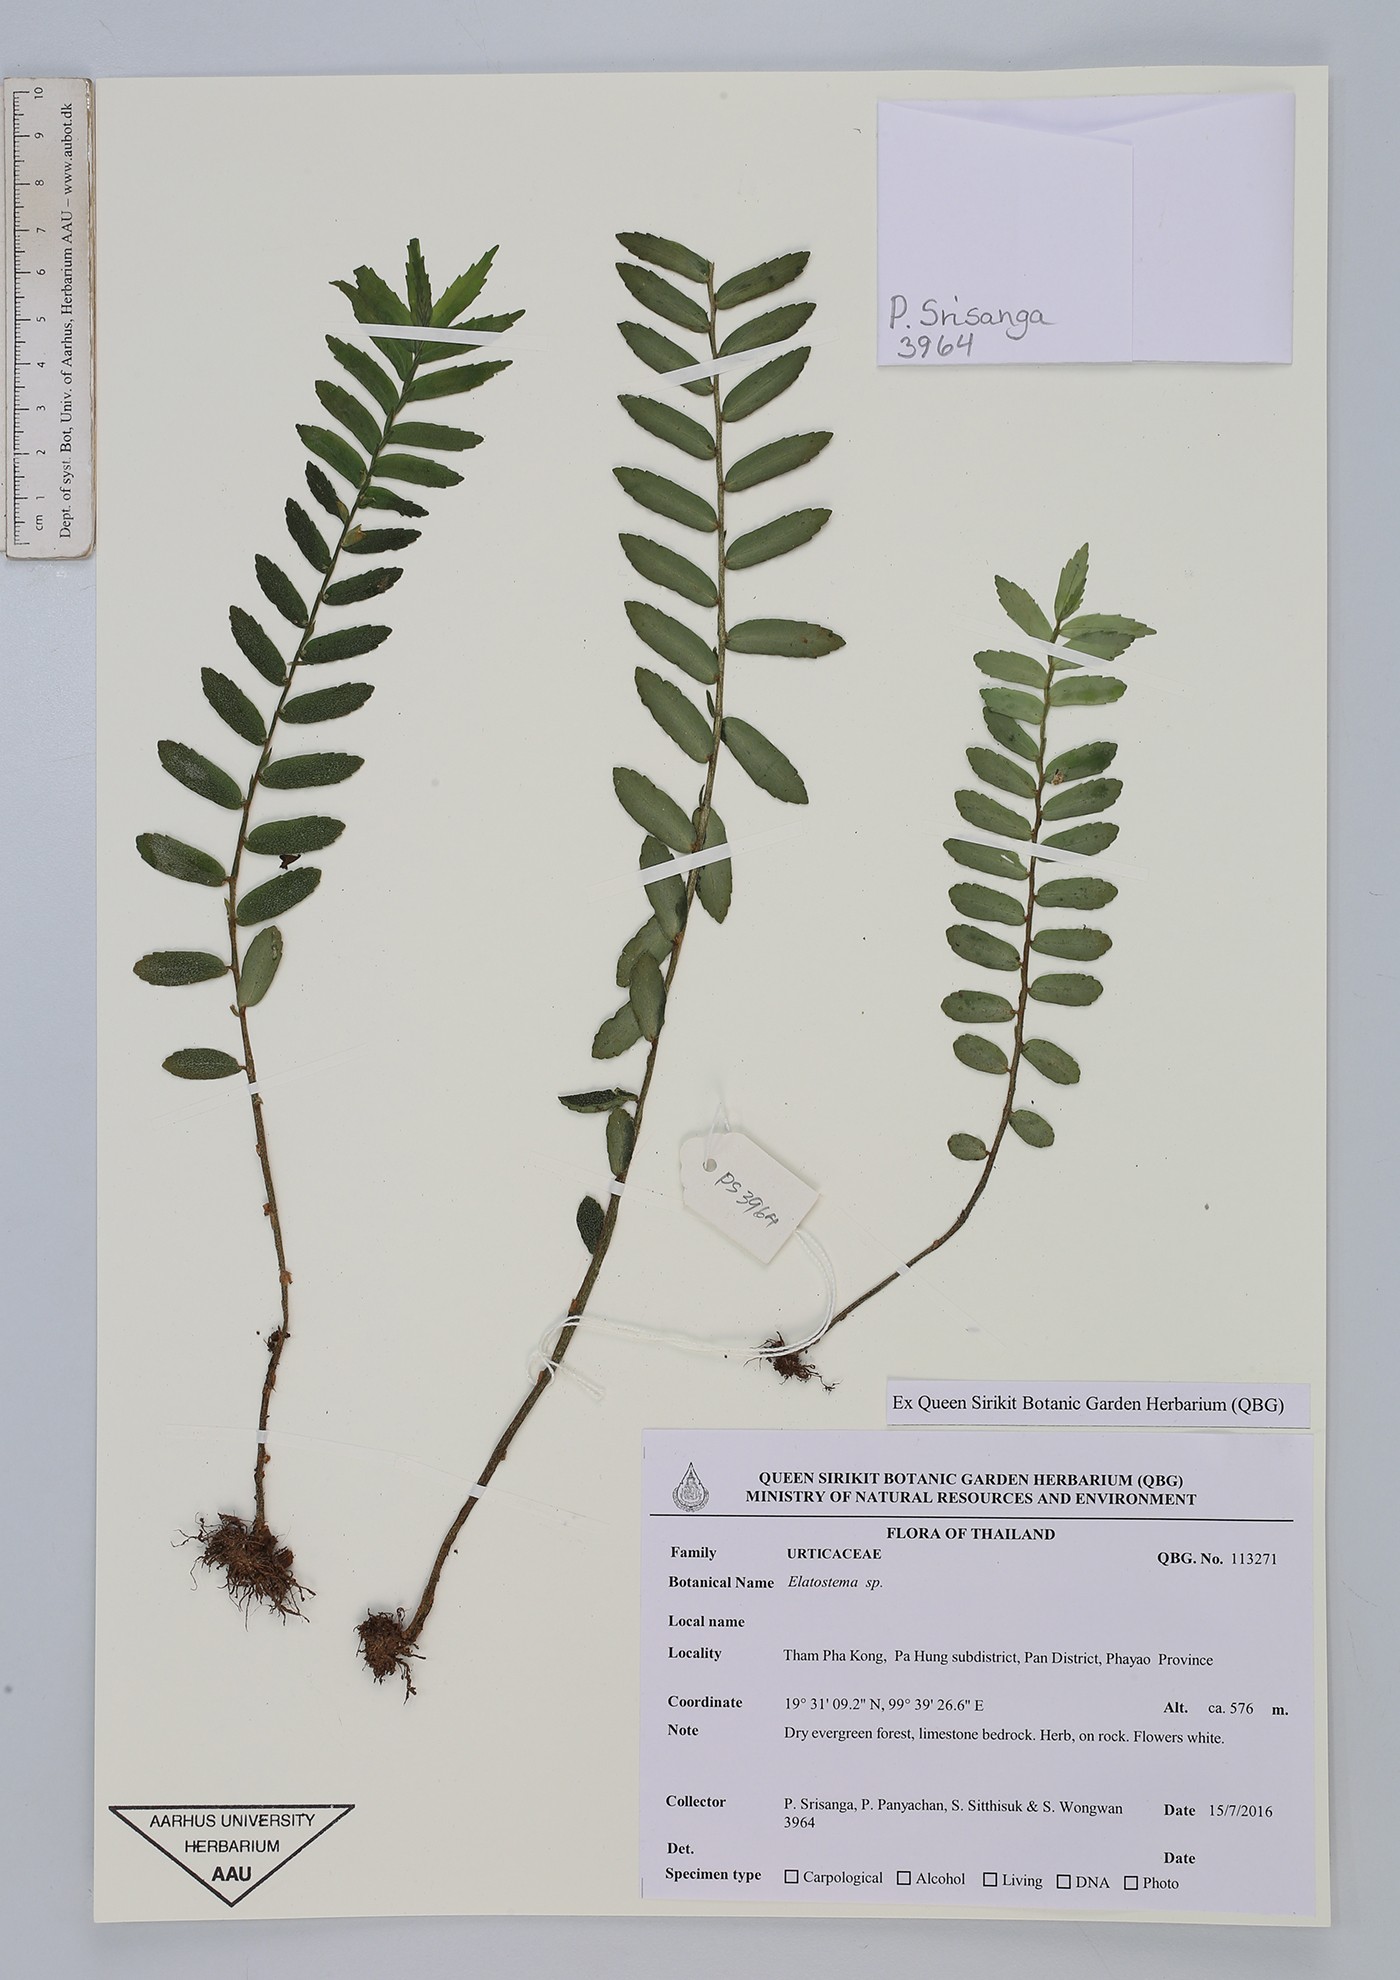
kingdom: Plantae
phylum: Tracheophyta
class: Magnoliopsida
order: Rosales
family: Urticaceae
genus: Elatostema
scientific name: Elatostema salvinioides
